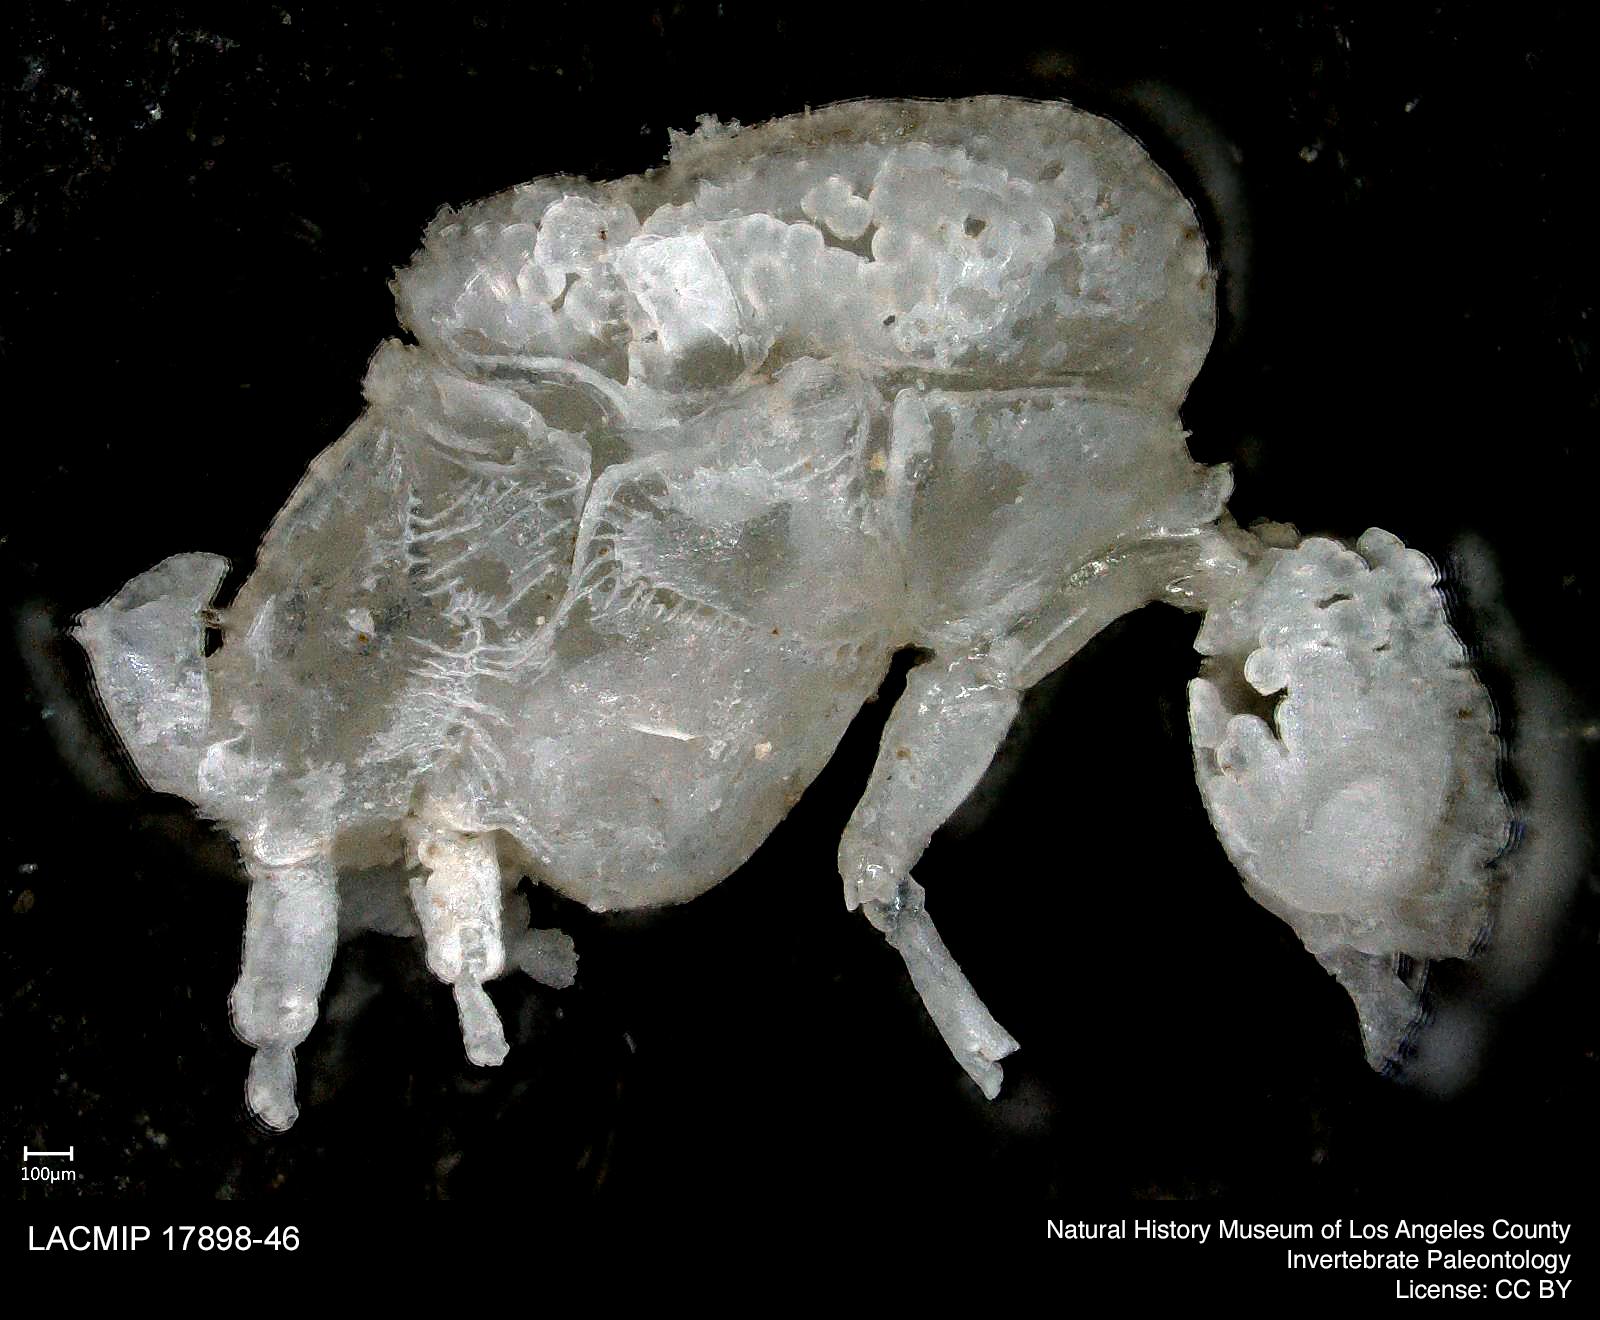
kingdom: Animalia
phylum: Arthropoda
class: Collembola
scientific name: Collembola
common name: Collembola
